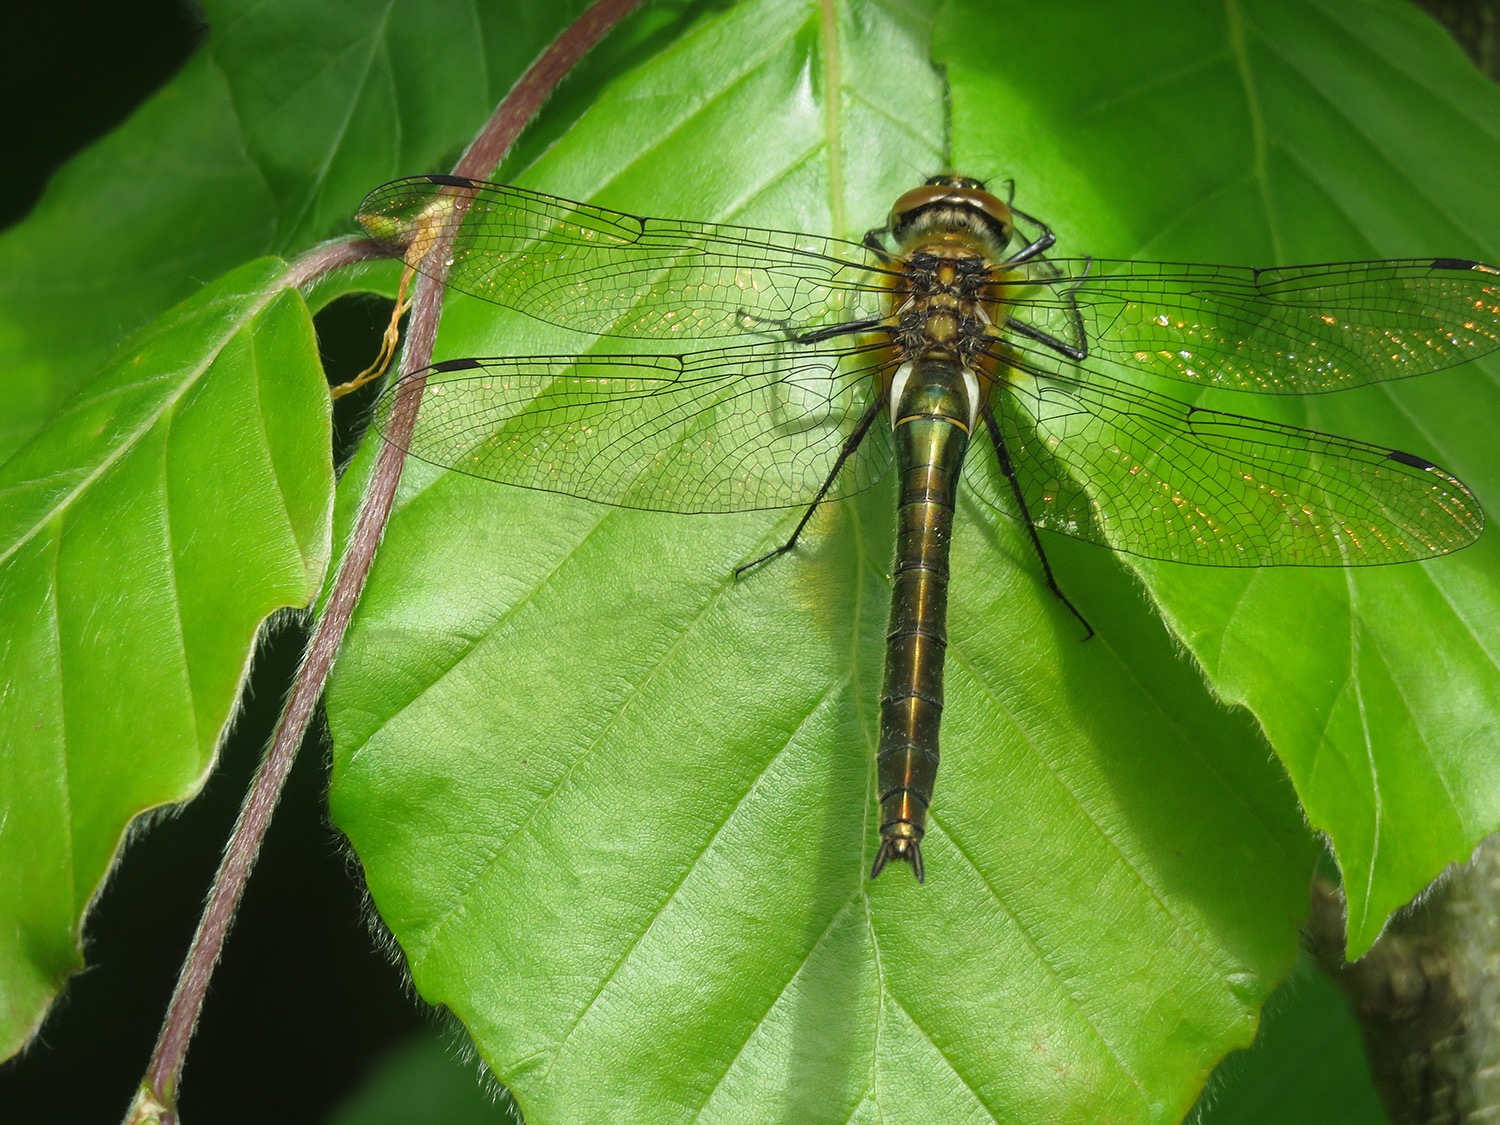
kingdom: Animalia
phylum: Arthropoda
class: Insecta
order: Odonata
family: Corduliidae
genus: Cordulia
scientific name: Cordulia aenea
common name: Grøn smaragdlibel
